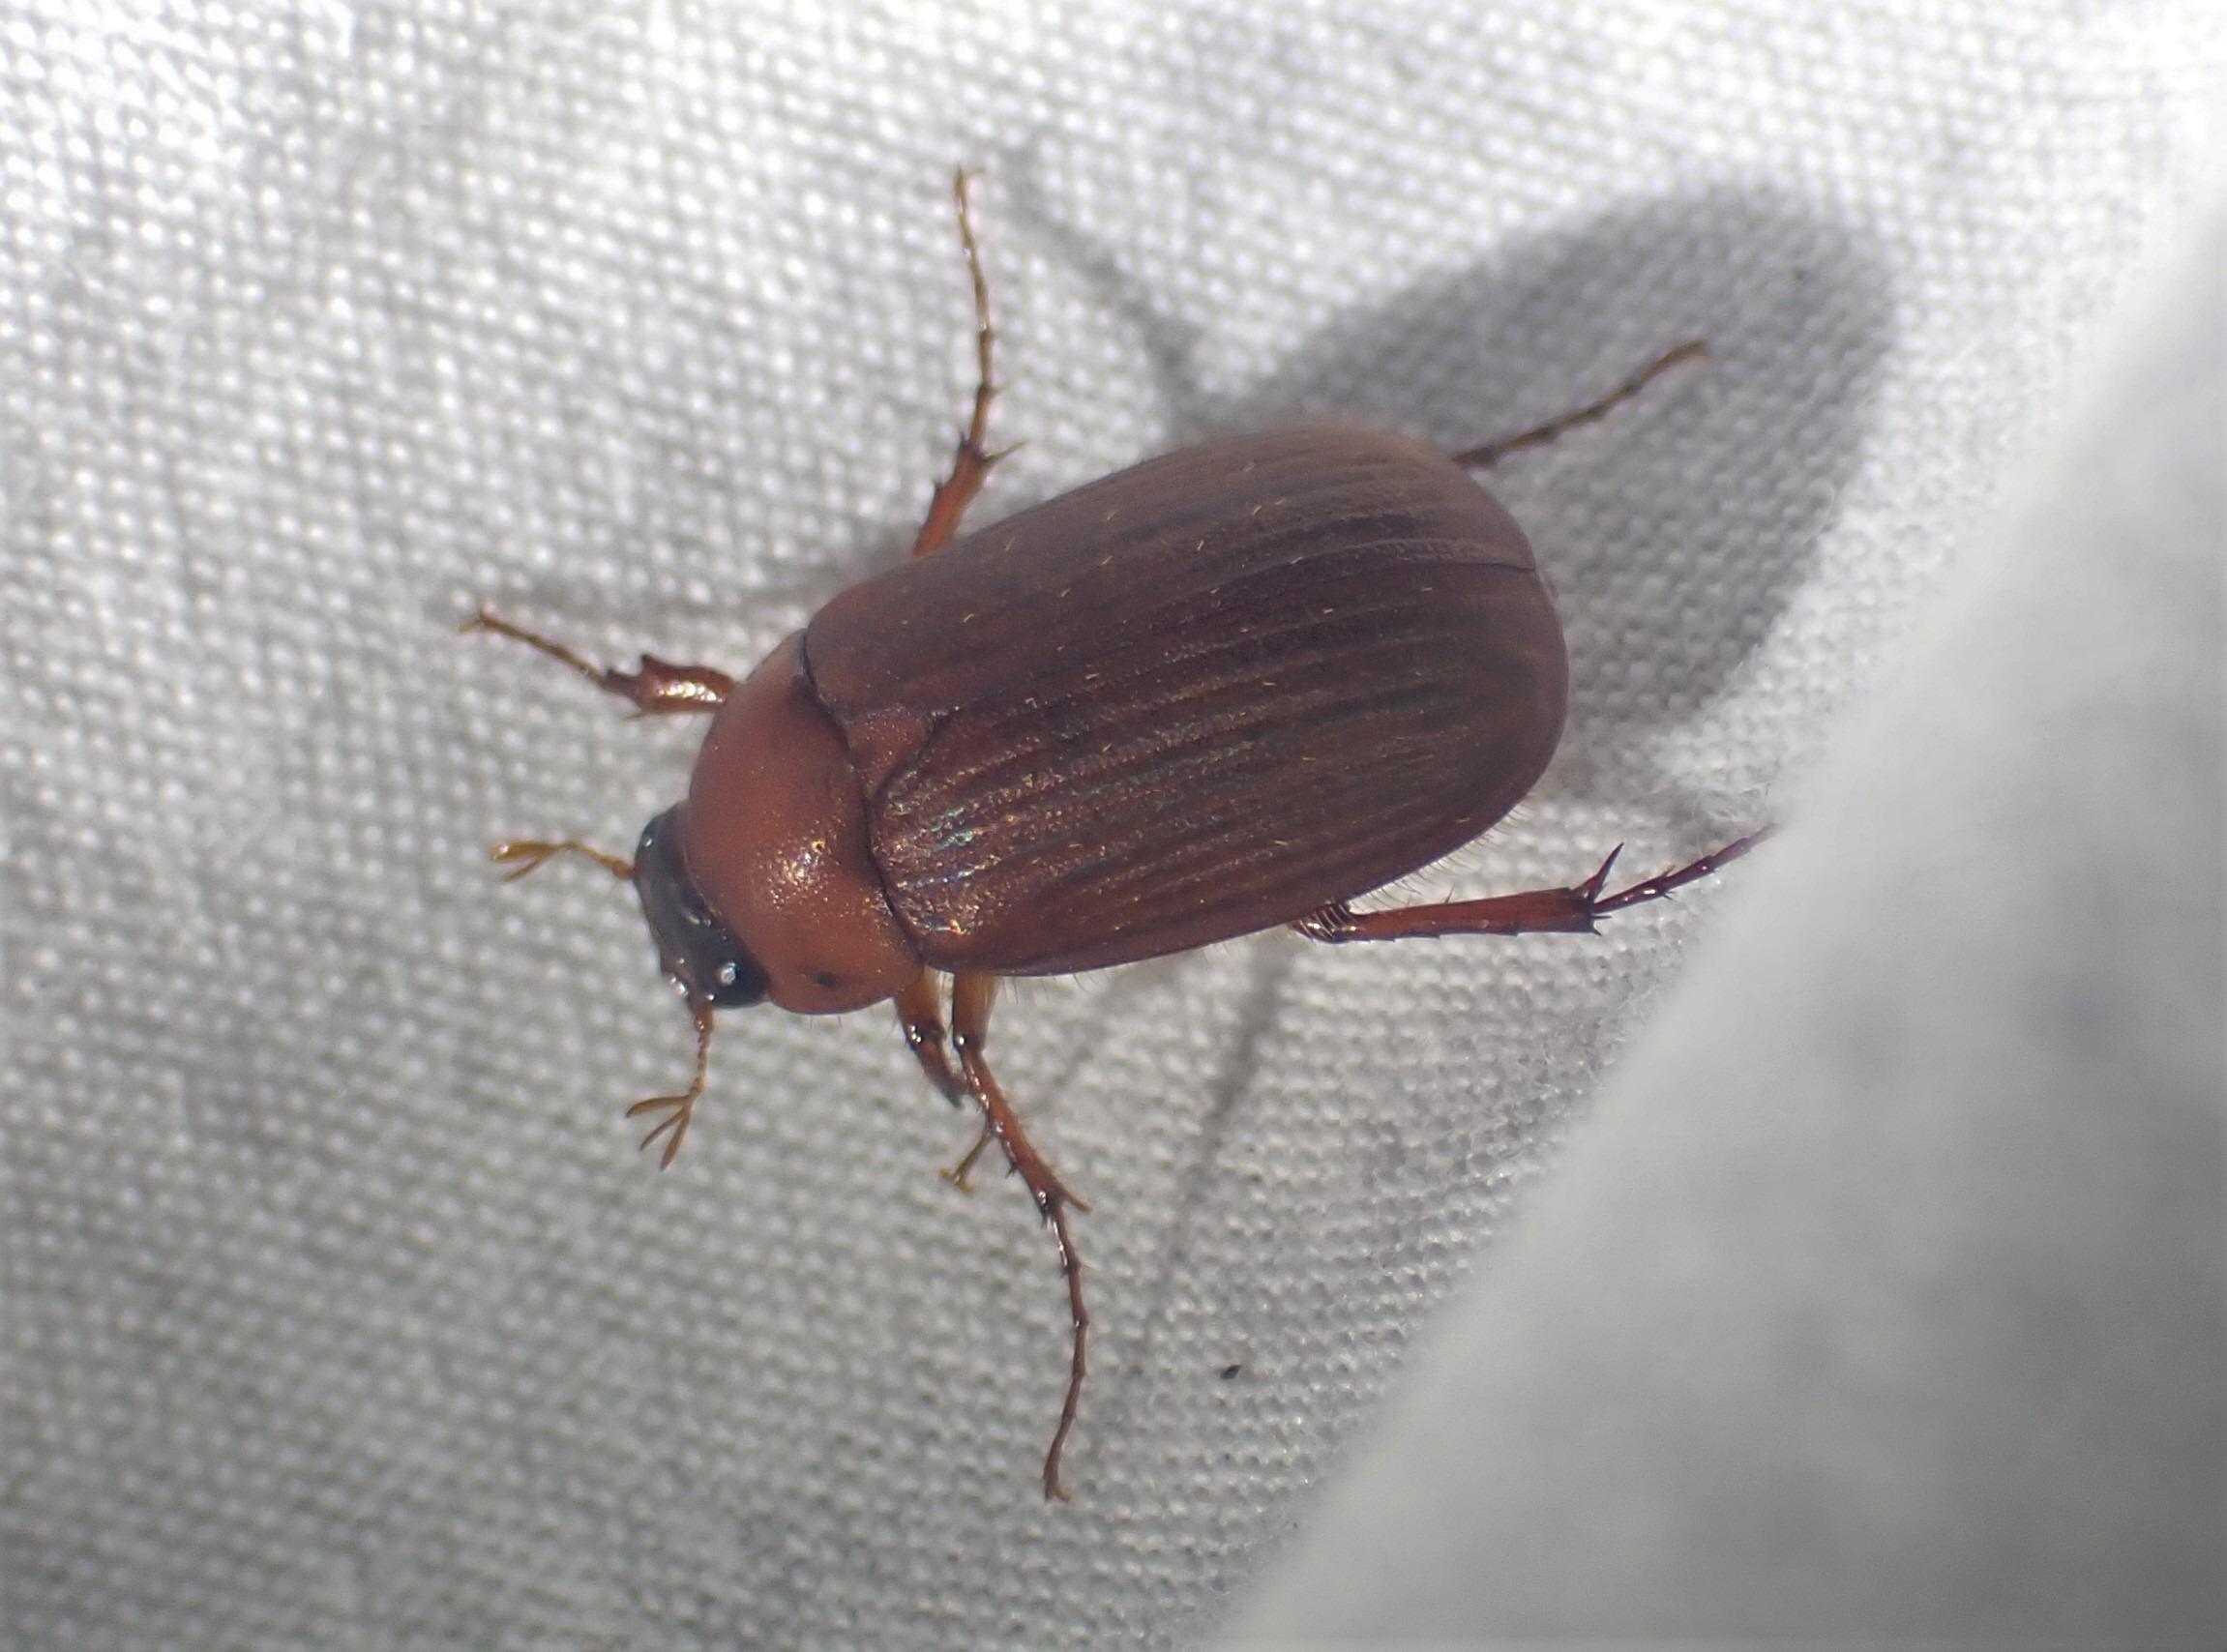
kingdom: Animalia
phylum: Arthropoda
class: Insecta
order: Coleoptera
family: Scarabaeidae
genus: Serica
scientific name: Serica brunnea
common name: Natoldenborre
